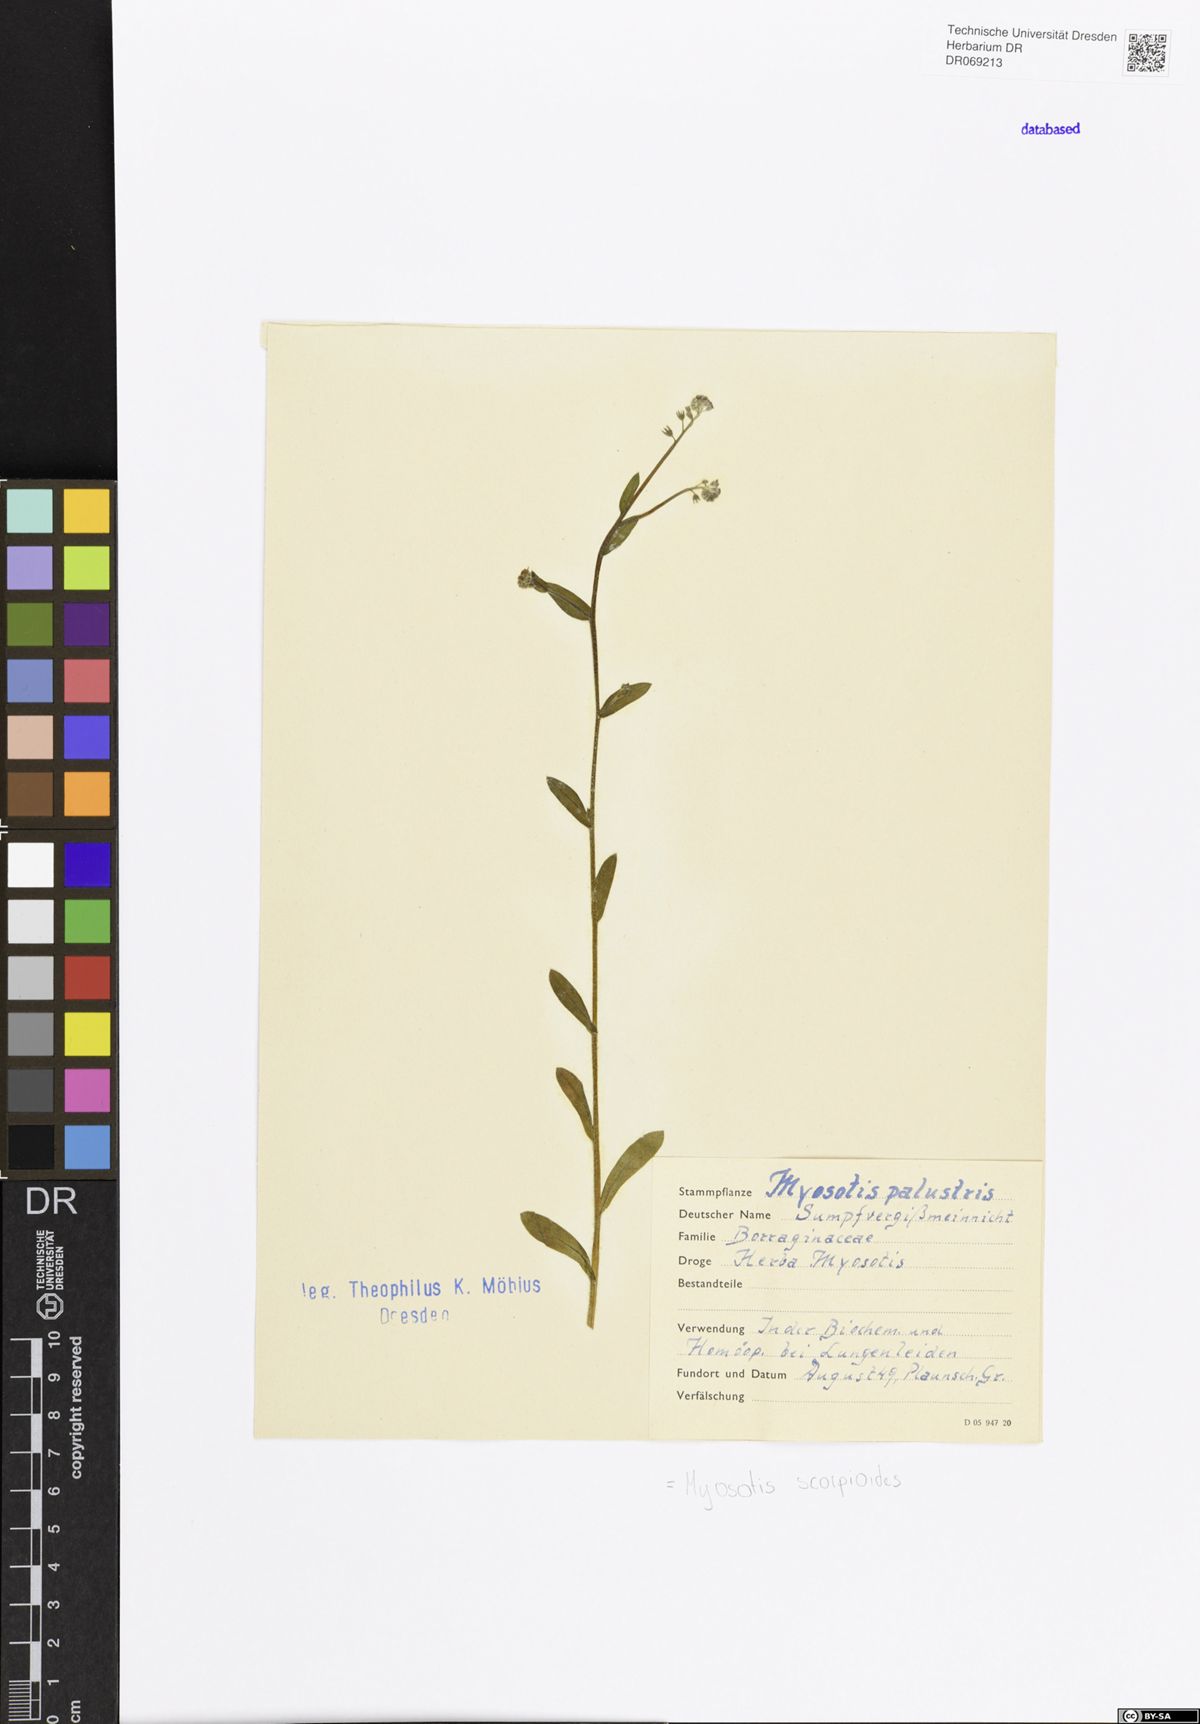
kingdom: Plantae
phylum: Tracheophyta
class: Magnoliopsida
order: Boraginales
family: Boraginaceae
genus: Myosotis
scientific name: Myosotis scorpioides
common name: Water forget-me-not
